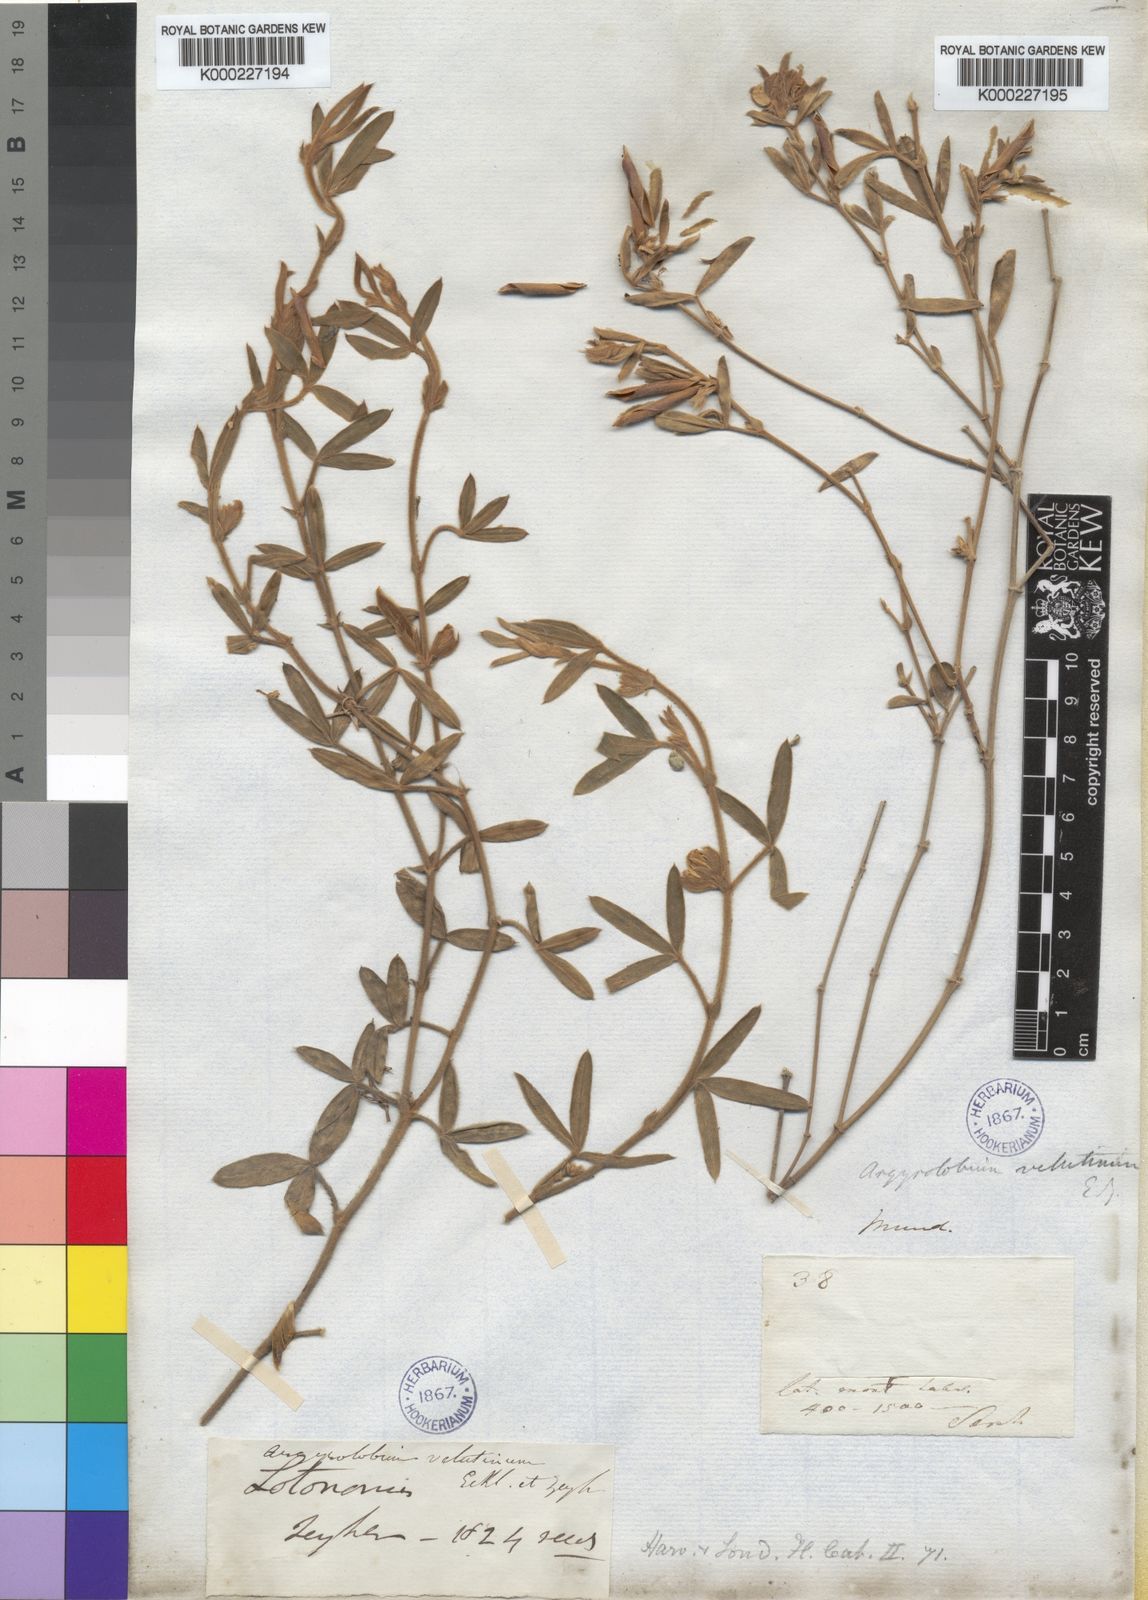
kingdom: Plantae
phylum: Tracheophyta
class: Magnoliopsida
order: Fabales
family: Fabaceae
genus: Argyrolobium
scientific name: Argyrolobium velutinum
